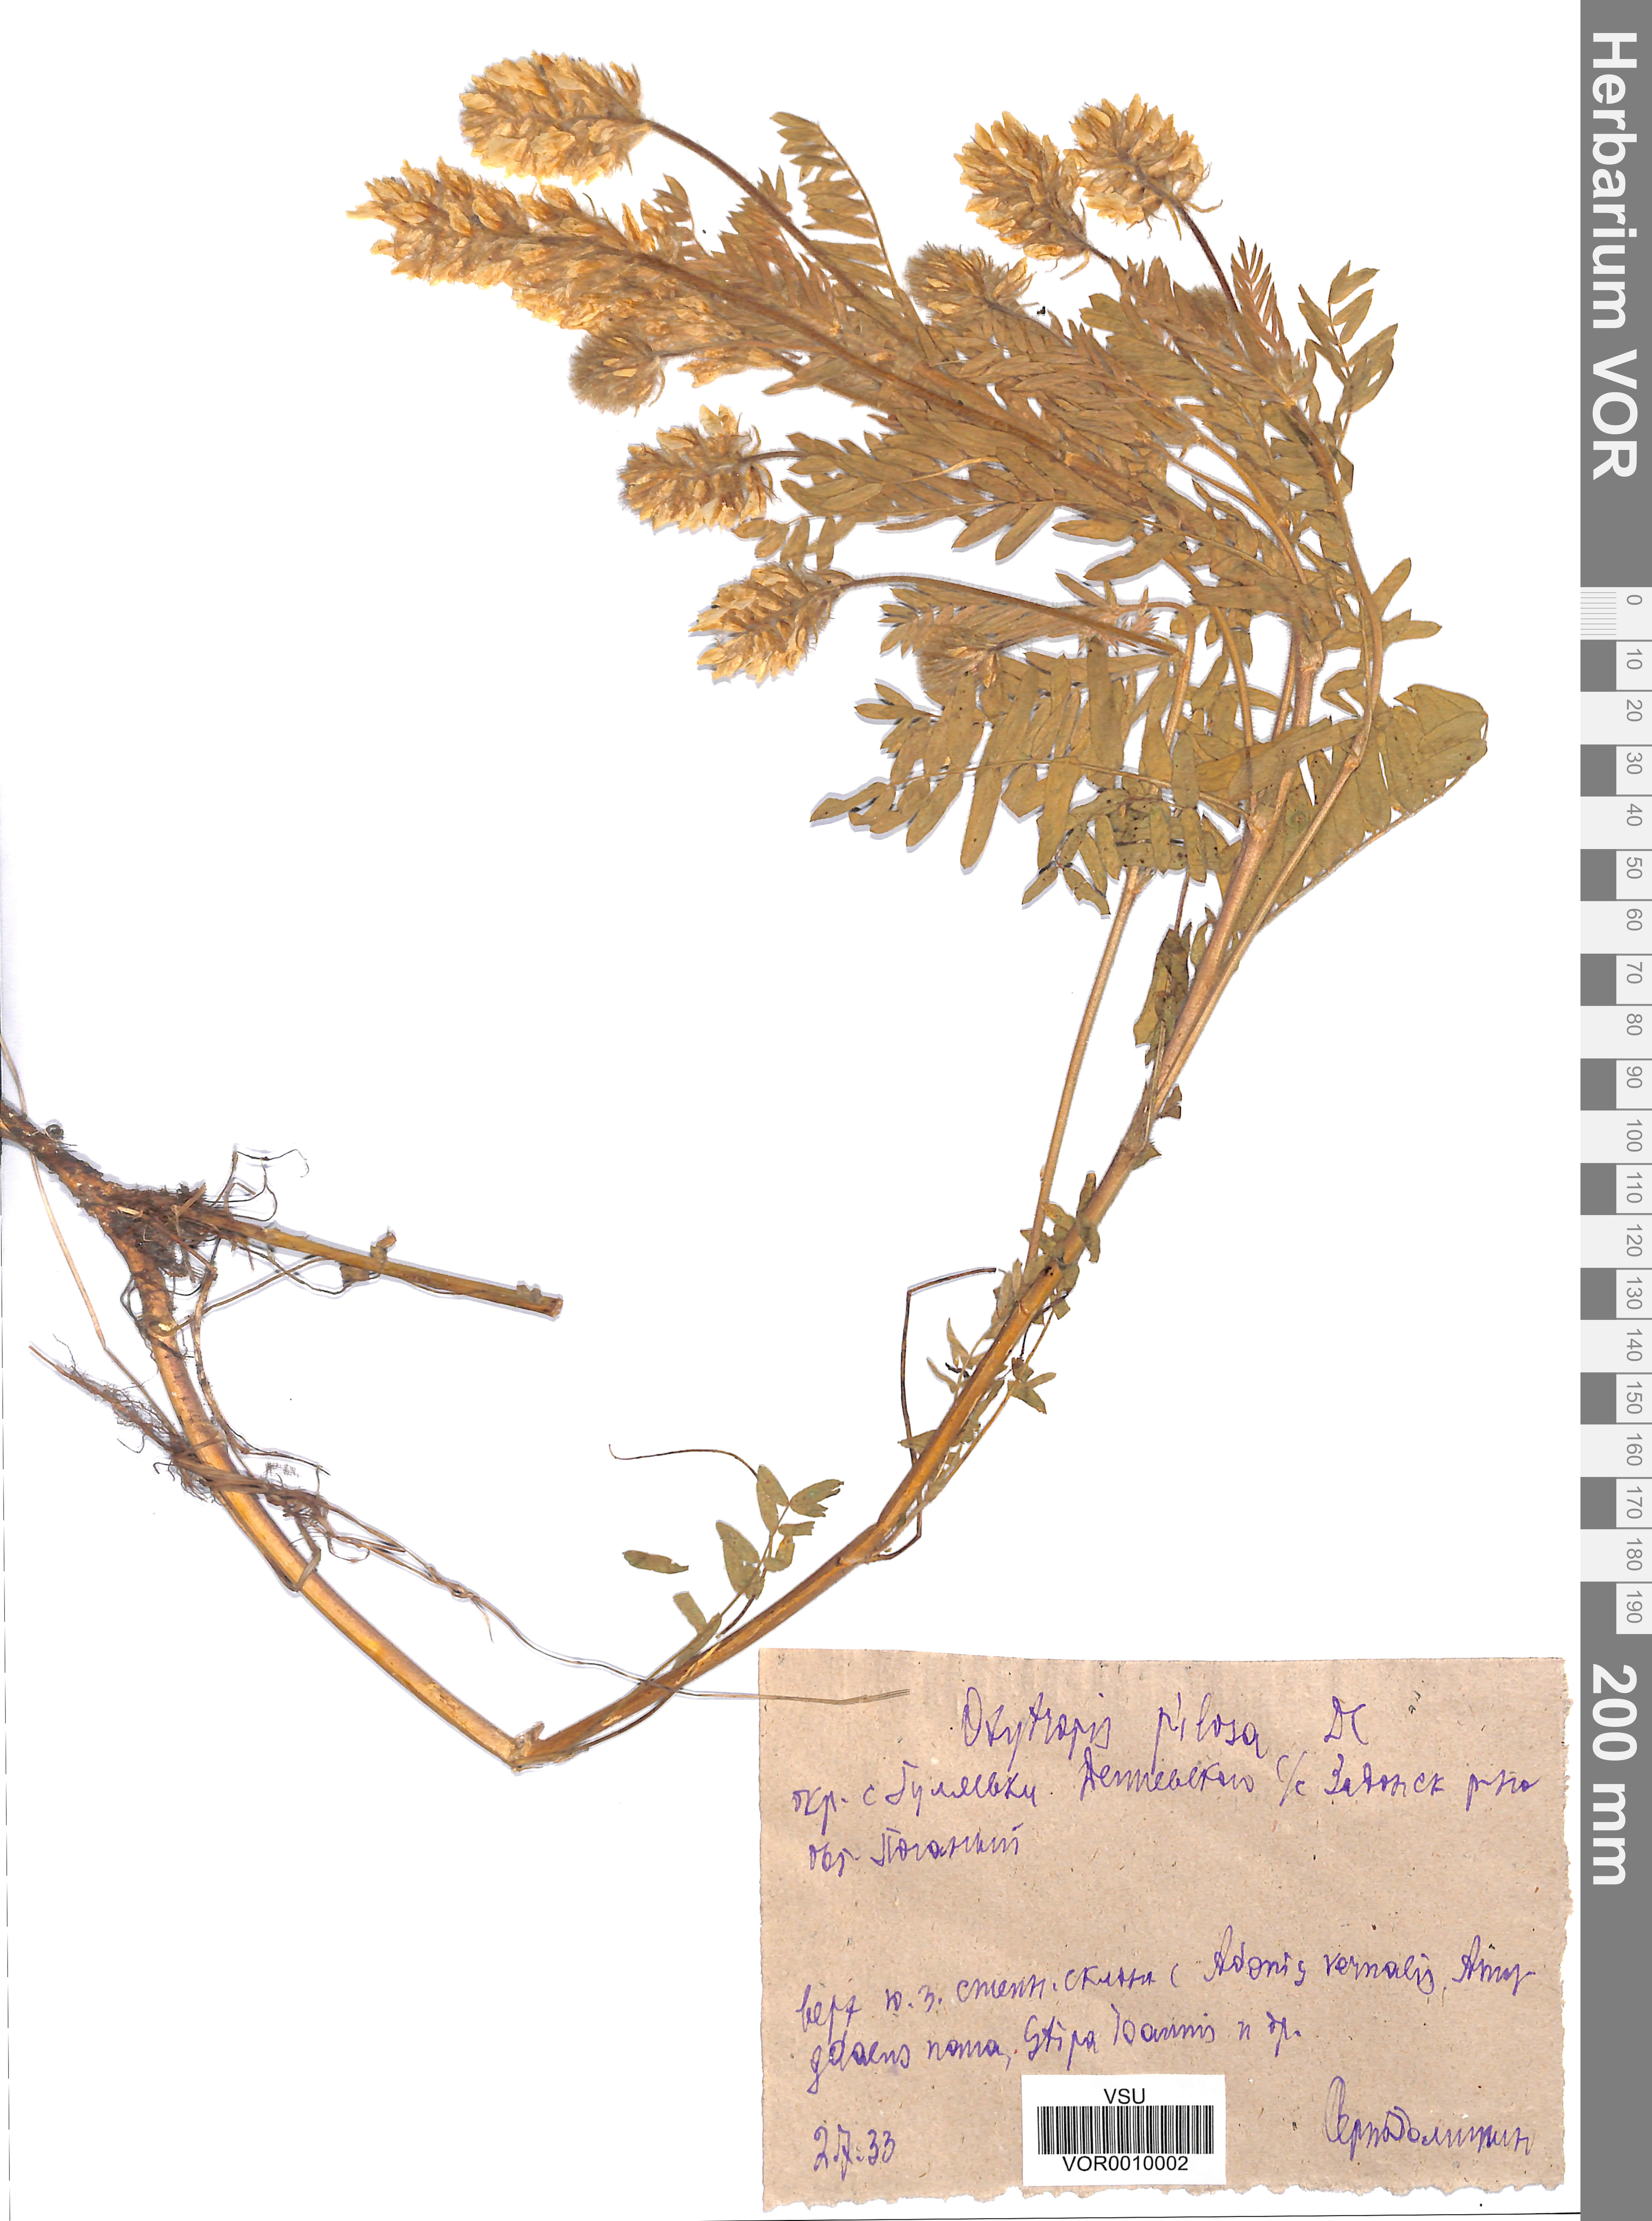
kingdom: Plantae
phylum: Tracheophyta
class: Magnoliopsida
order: Fabales
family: Fabaceae
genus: Oxytropis
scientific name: Oxytropis pilosa
